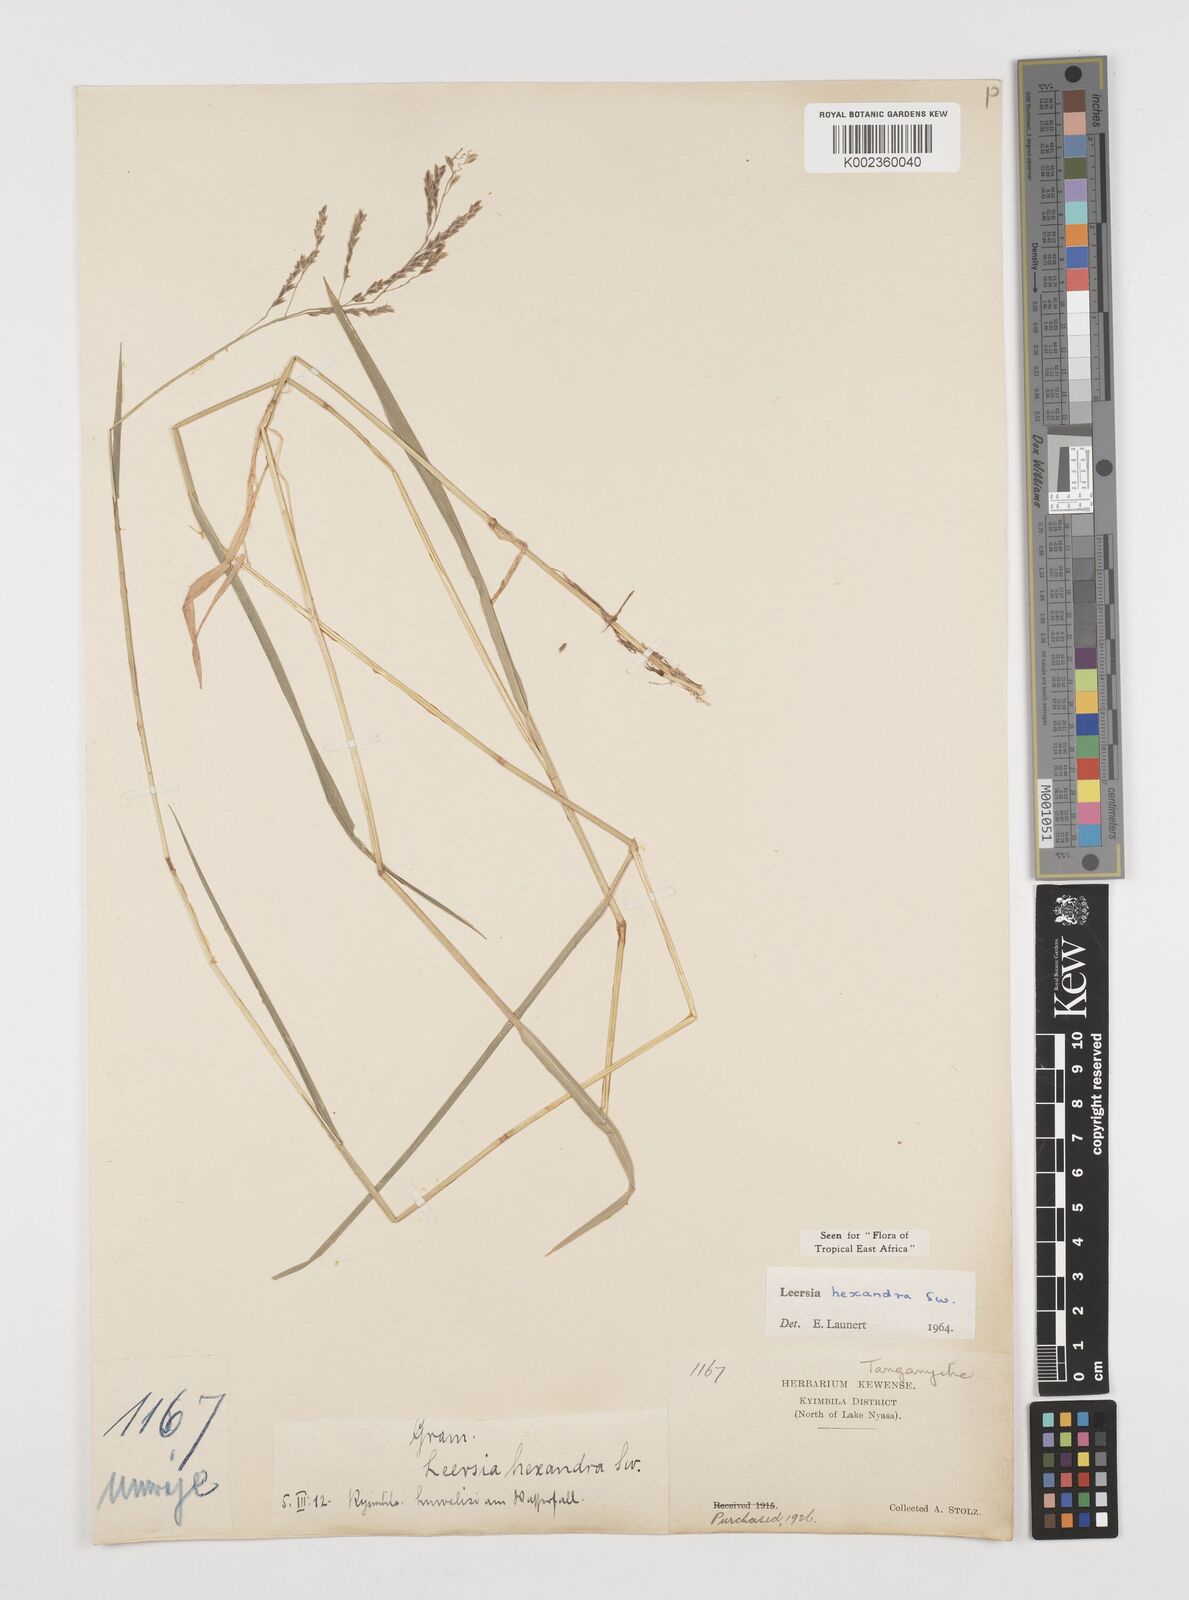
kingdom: Plantae
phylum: Tracheophyta
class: Liliopsida
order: Poales
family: Poaceae
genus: Leersia
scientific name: Leersia hexandra
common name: Southern cut grass
